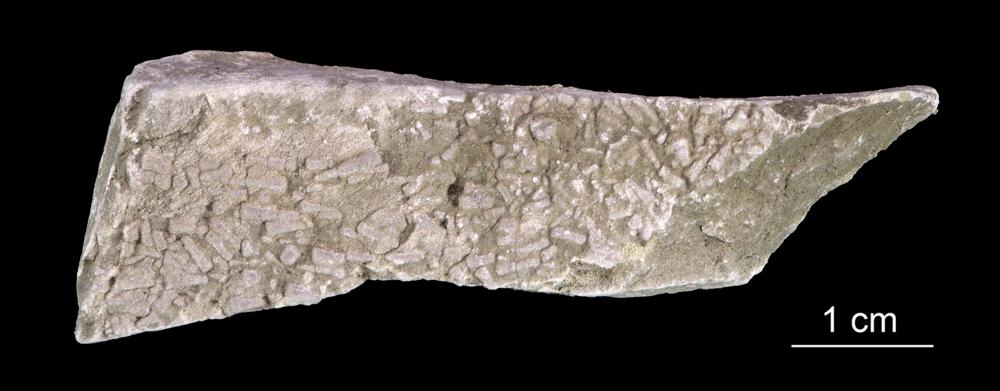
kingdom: Animalia
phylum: Annelida
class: Polychaeta
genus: Volborthella
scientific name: Volborthella tenuis
